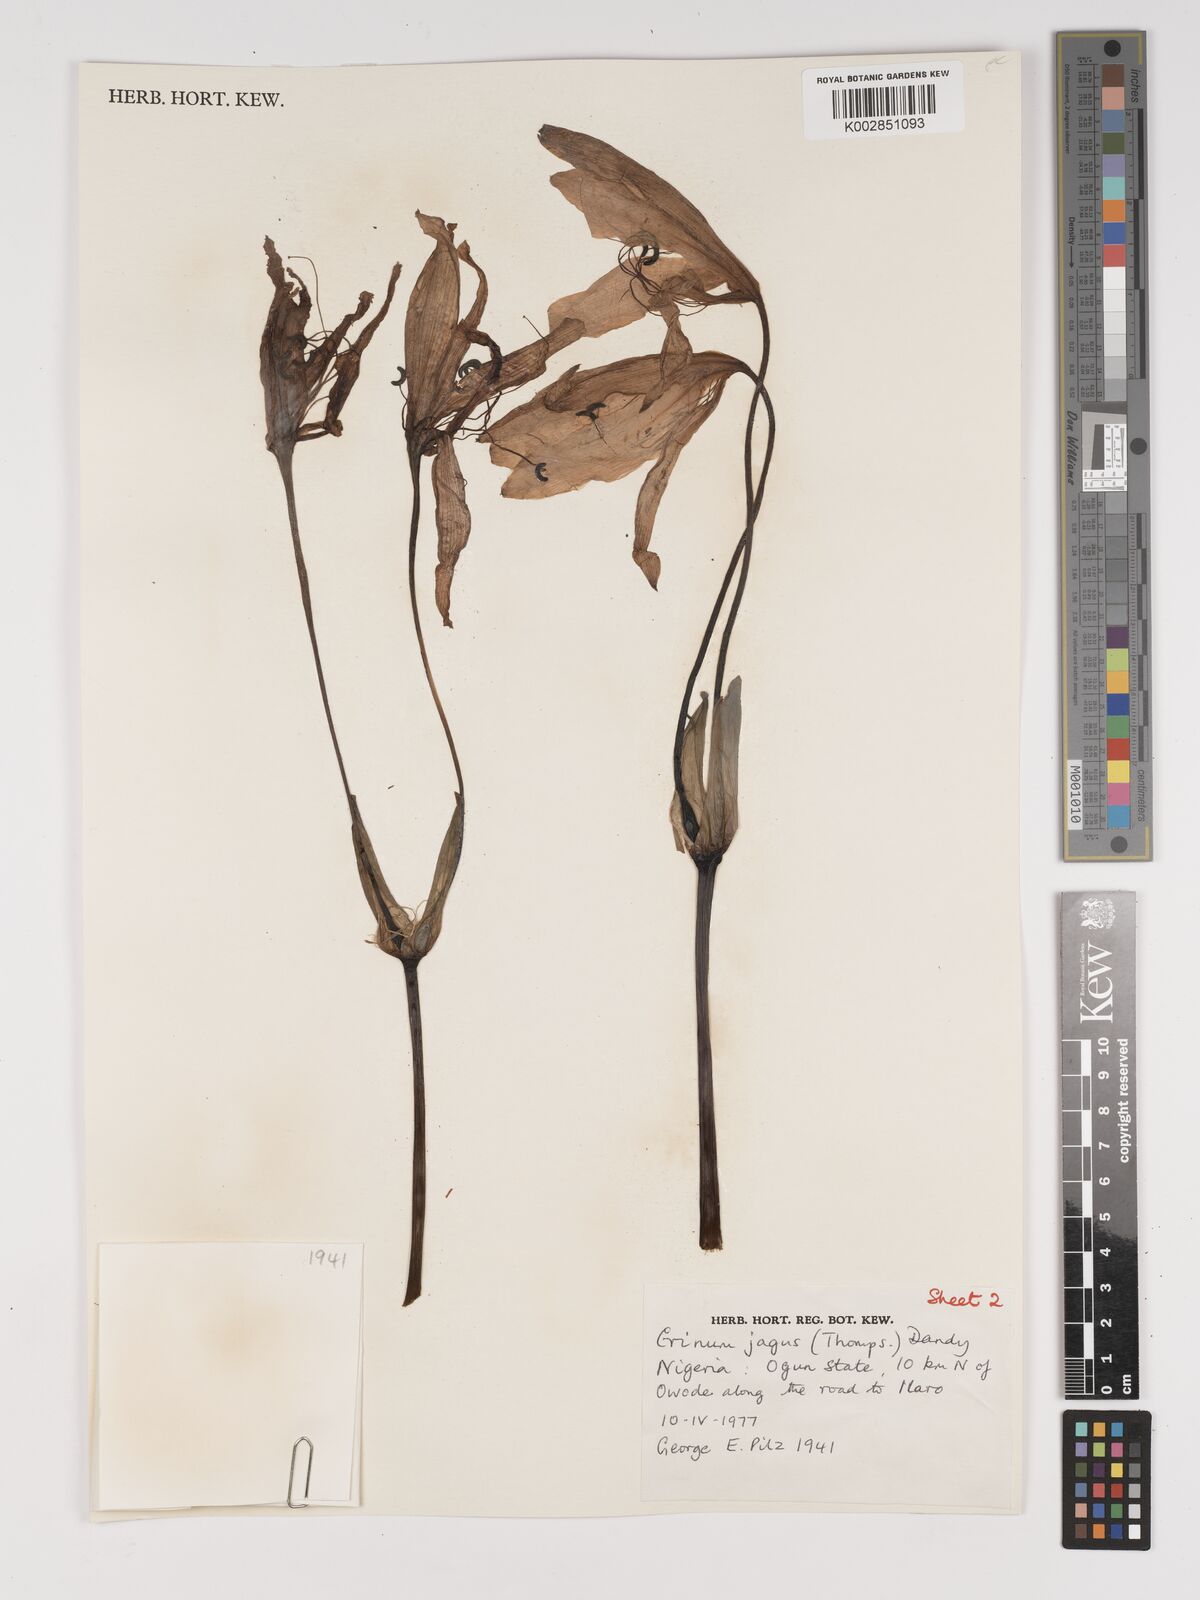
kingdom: Plantae
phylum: Tracheophyta
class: Liliopsida
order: Asparagales
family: Amaryllidaceae
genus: Crinum
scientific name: Crinum jagus
